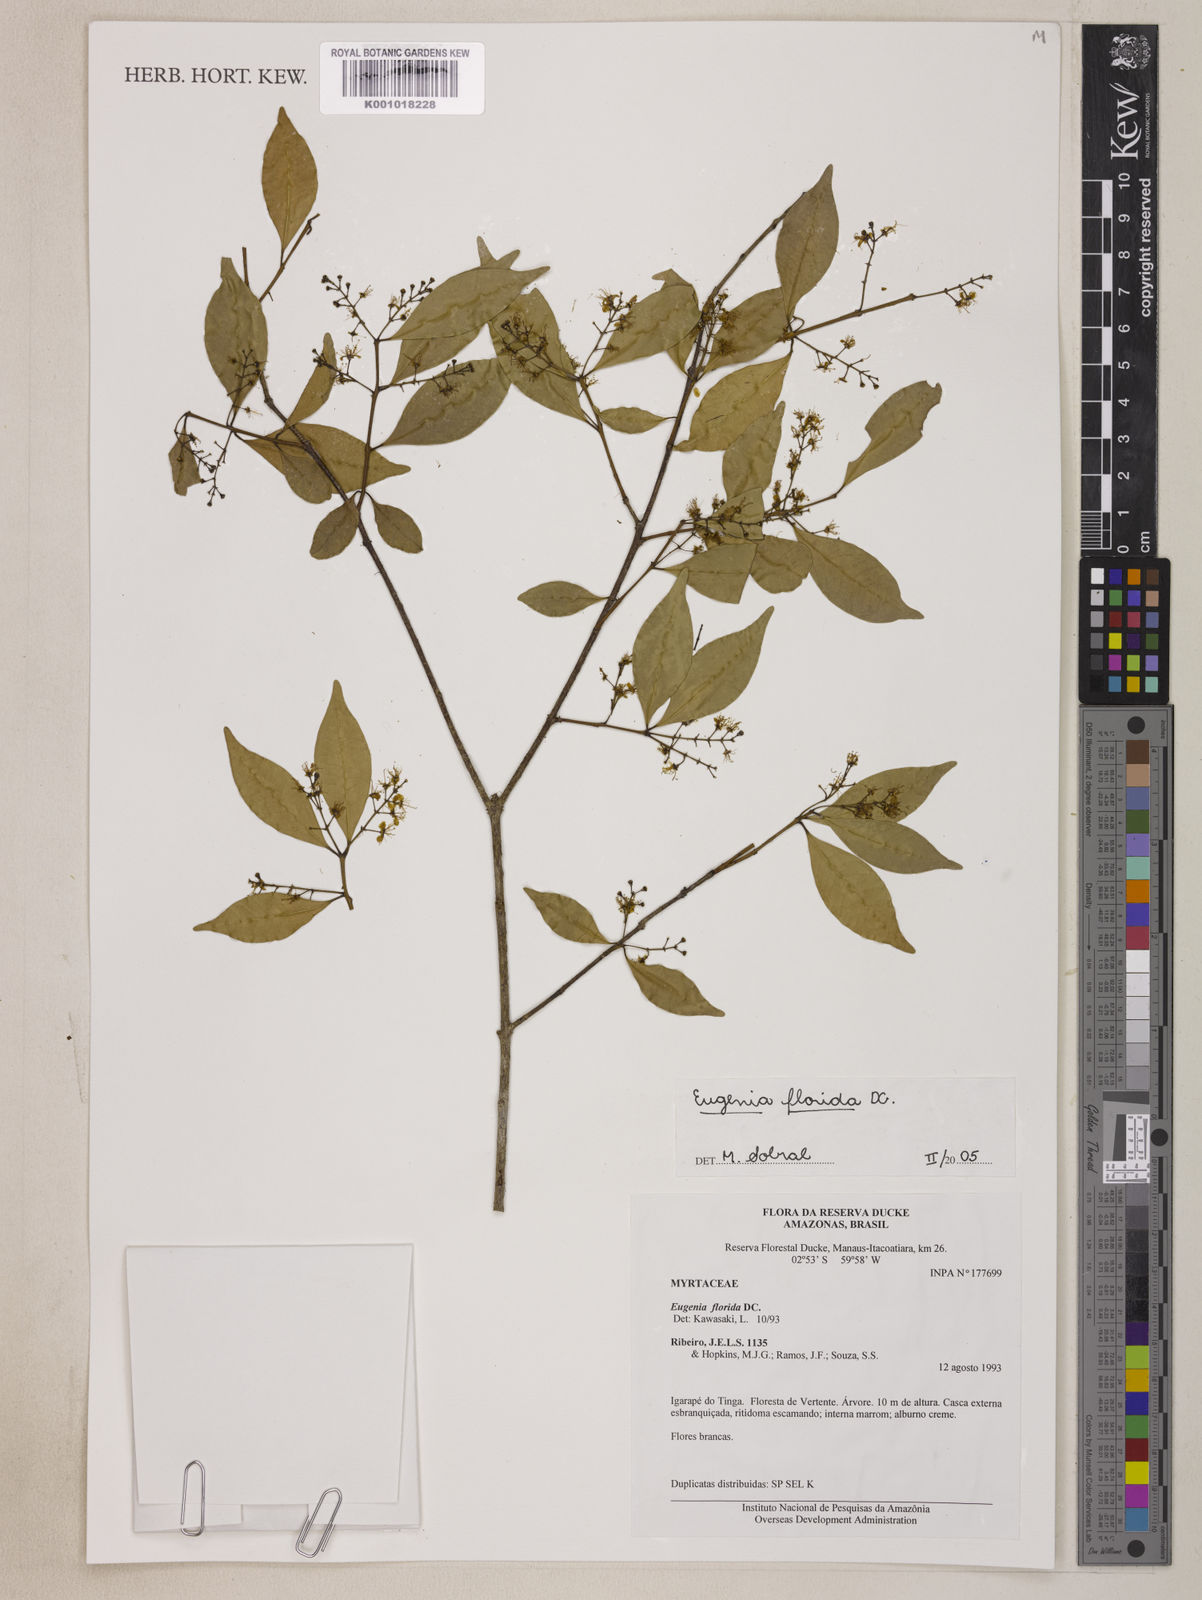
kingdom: Plantae
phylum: Tracheophyta
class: Magnoliopsida
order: Myrtales
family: Myrtaceae
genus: Eugenia
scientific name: Eugenia florida
